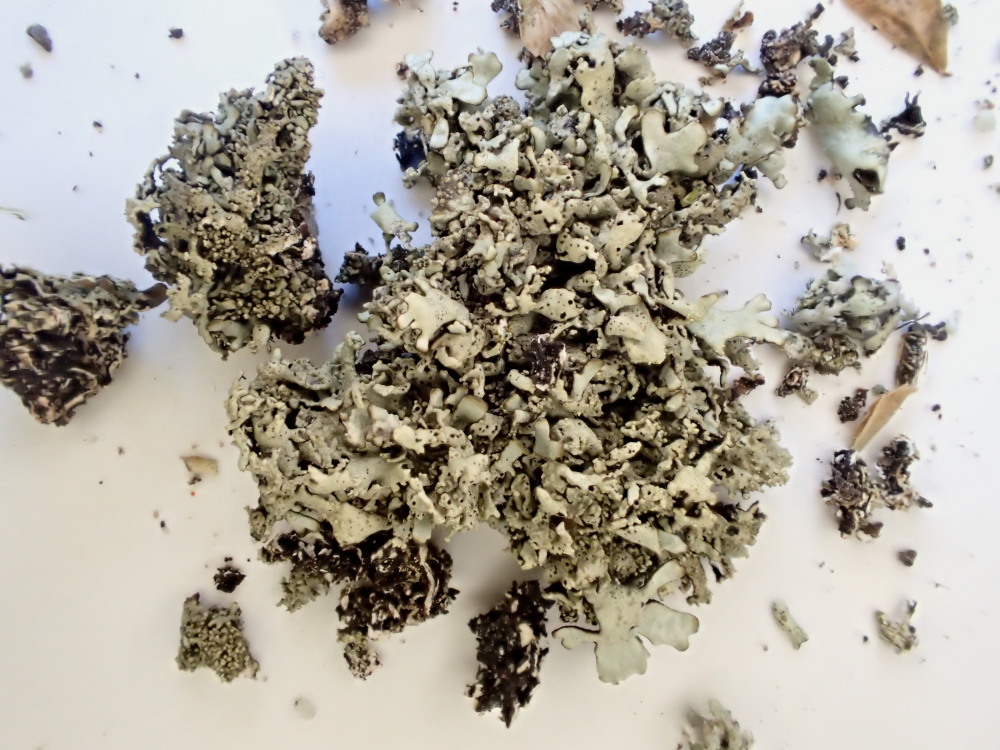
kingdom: Fungi
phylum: Ascomycota
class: Lecanoromycetes
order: Lecanorales
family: Parmeliaceae
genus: Xanthoparmelia
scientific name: Xanthoparmelia conspersa
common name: messing-skållav
